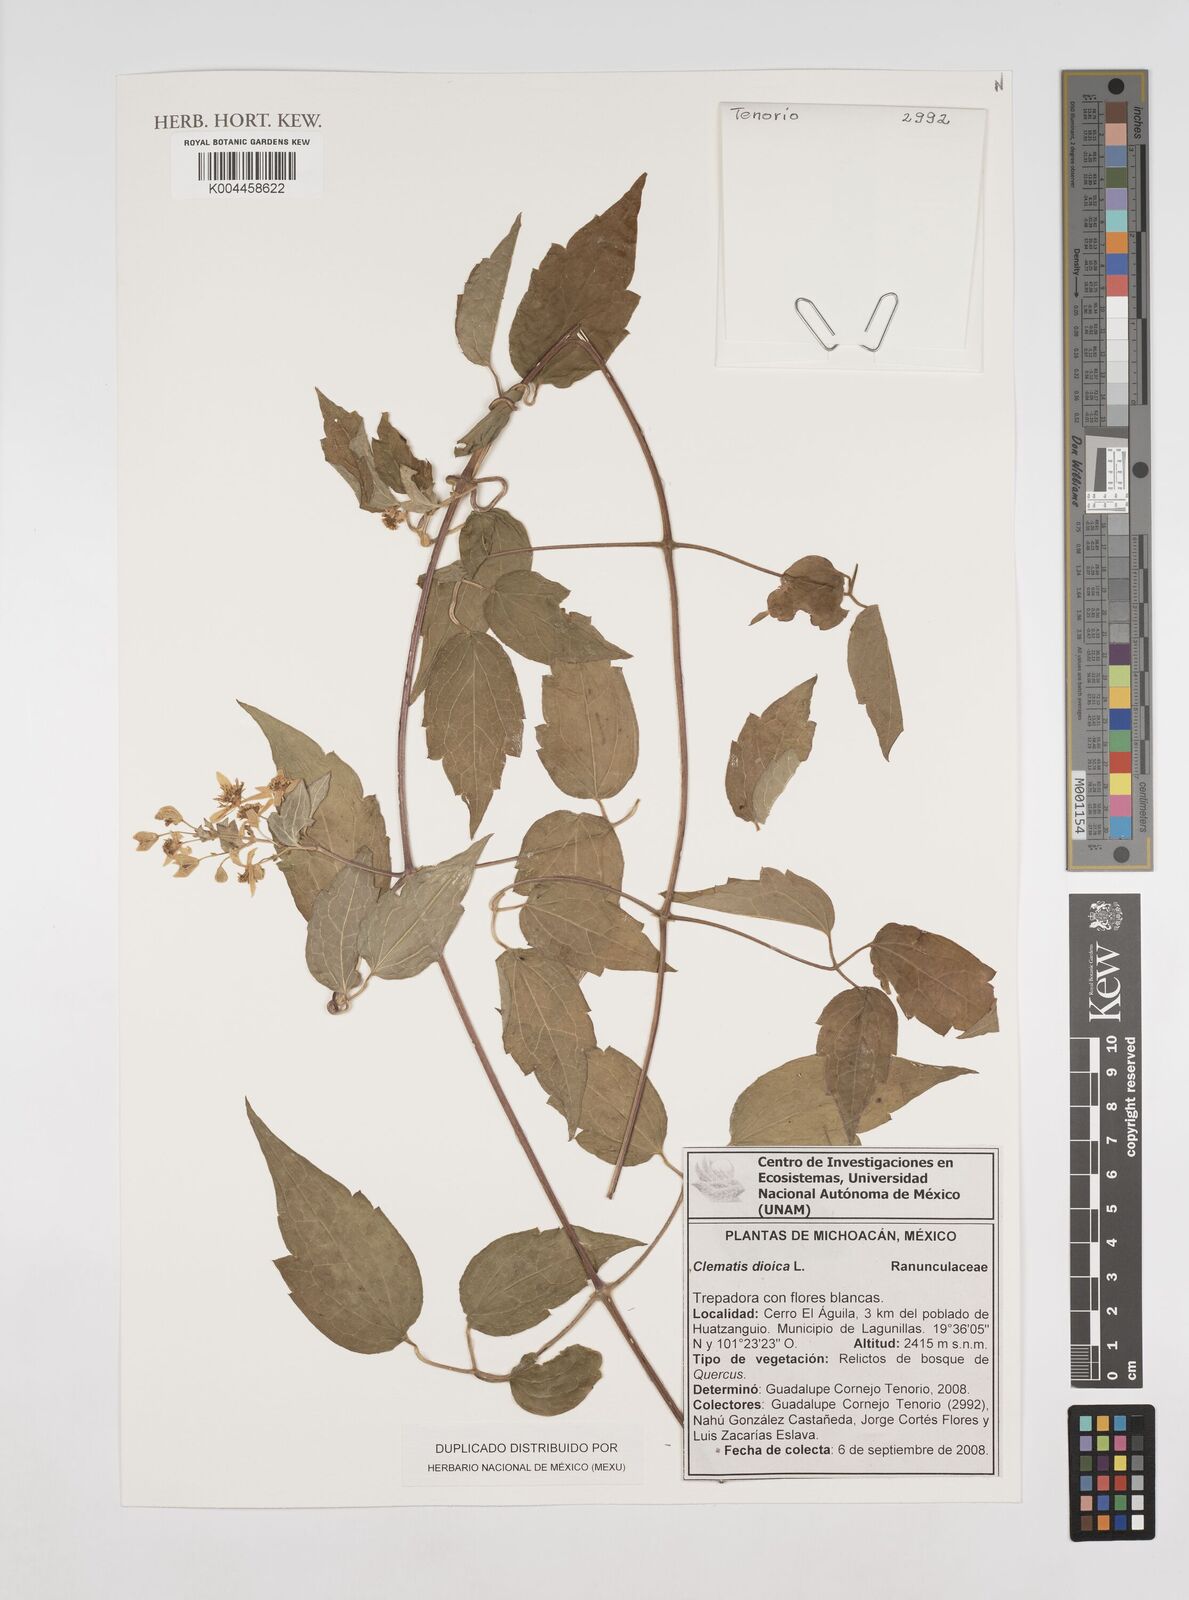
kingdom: Plantae
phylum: Tracheophyta
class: Magnoliopsida
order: Ranunculales
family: Ranunculaceae
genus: Clematis
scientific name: Clematis dioica
